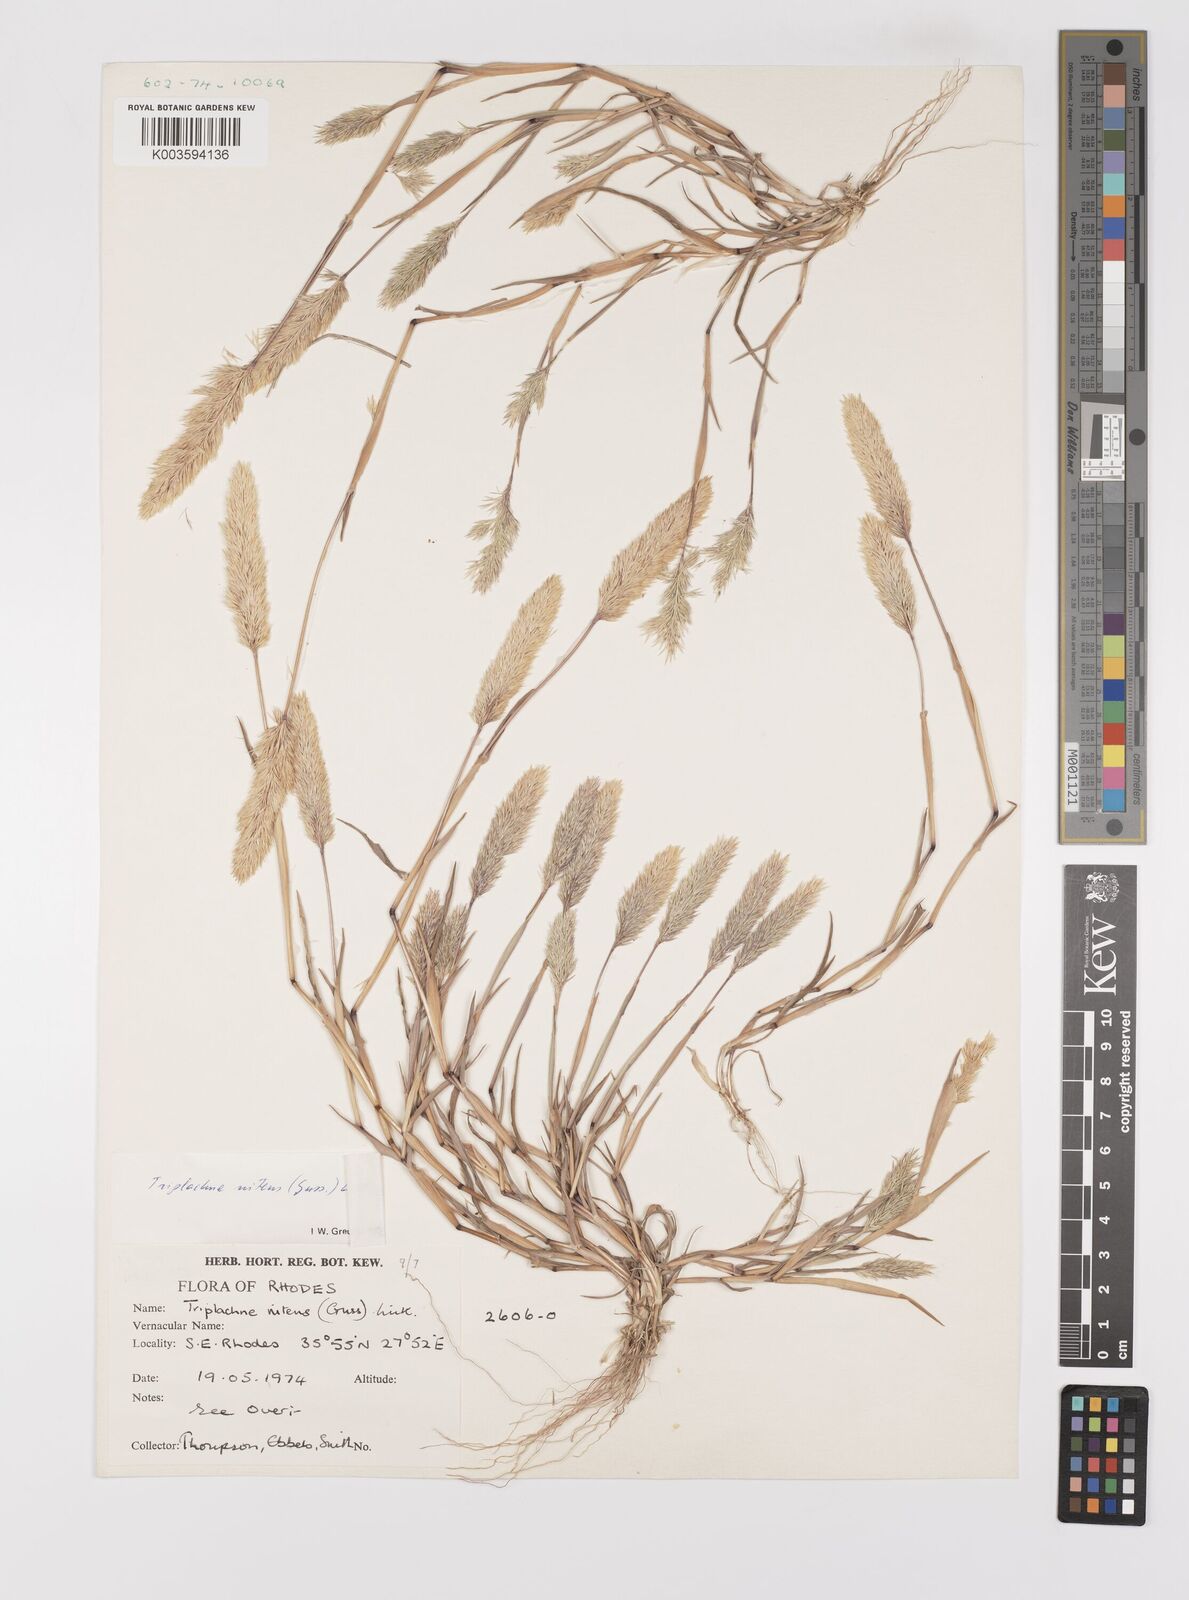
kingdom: Plantae
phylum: Tracheophyta
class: Liliopsida
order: Poales
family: Poaceae
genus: Triplachne
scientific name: Triplachne nitens
